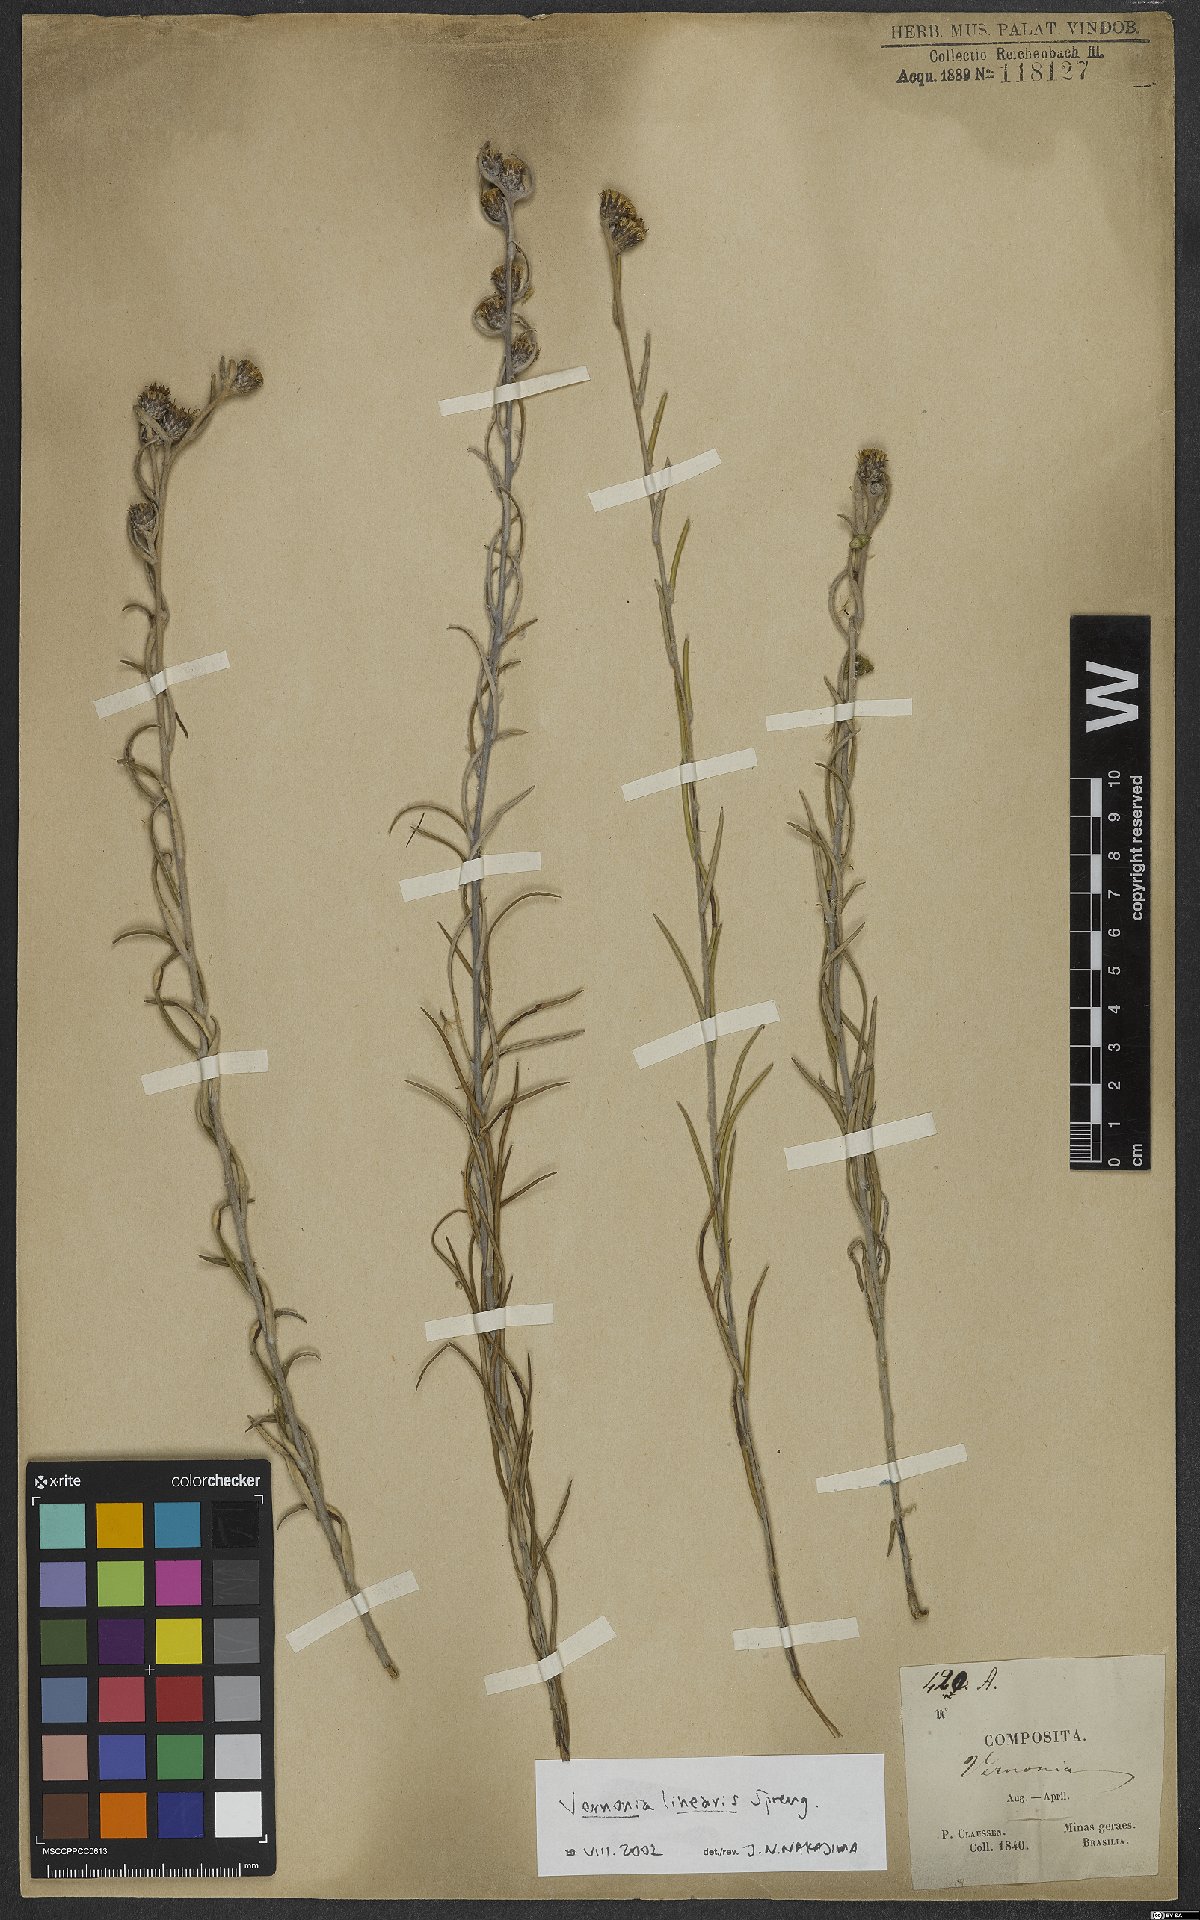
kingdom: Plantae
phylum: Tracheophyta
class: Magnoliopsida
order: Asterales
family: Asteraceae
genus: Lessingianthus
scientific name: Lessingianthus linearis
